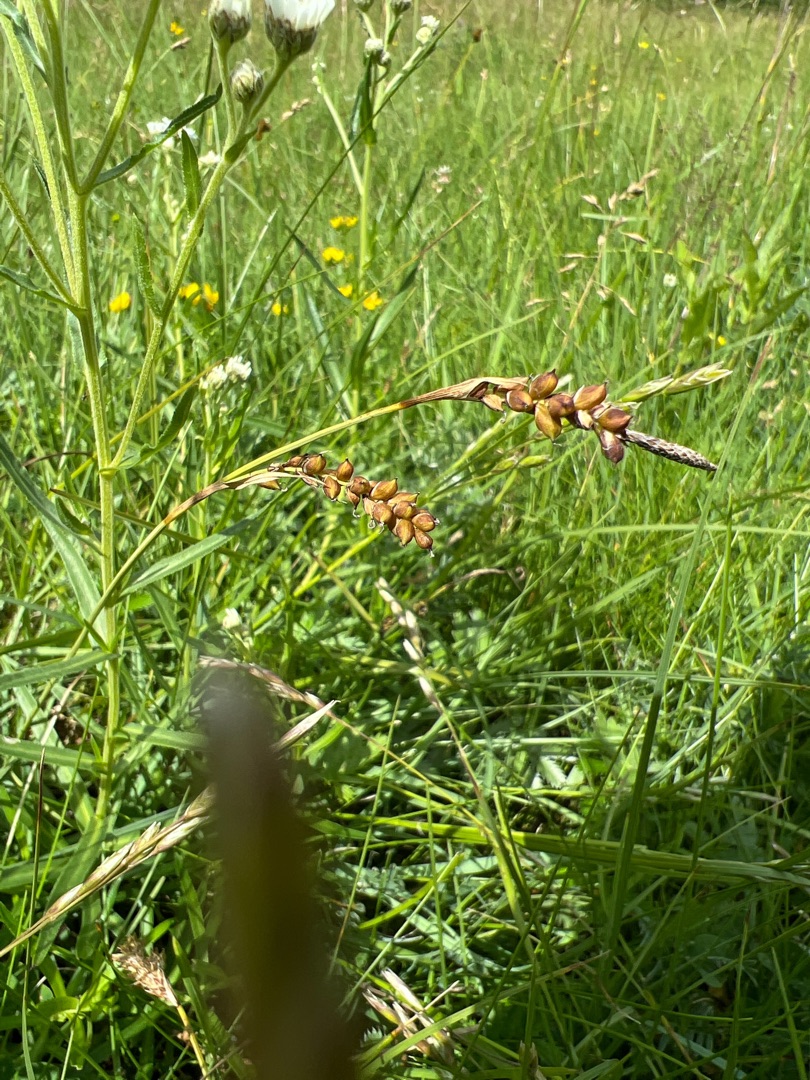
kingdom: Plantae
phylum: Tracheophyta
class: Liliopsida
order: Poales
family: Cyperaceae
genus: Carex
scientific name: Carex panicea
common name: Hirse-star
